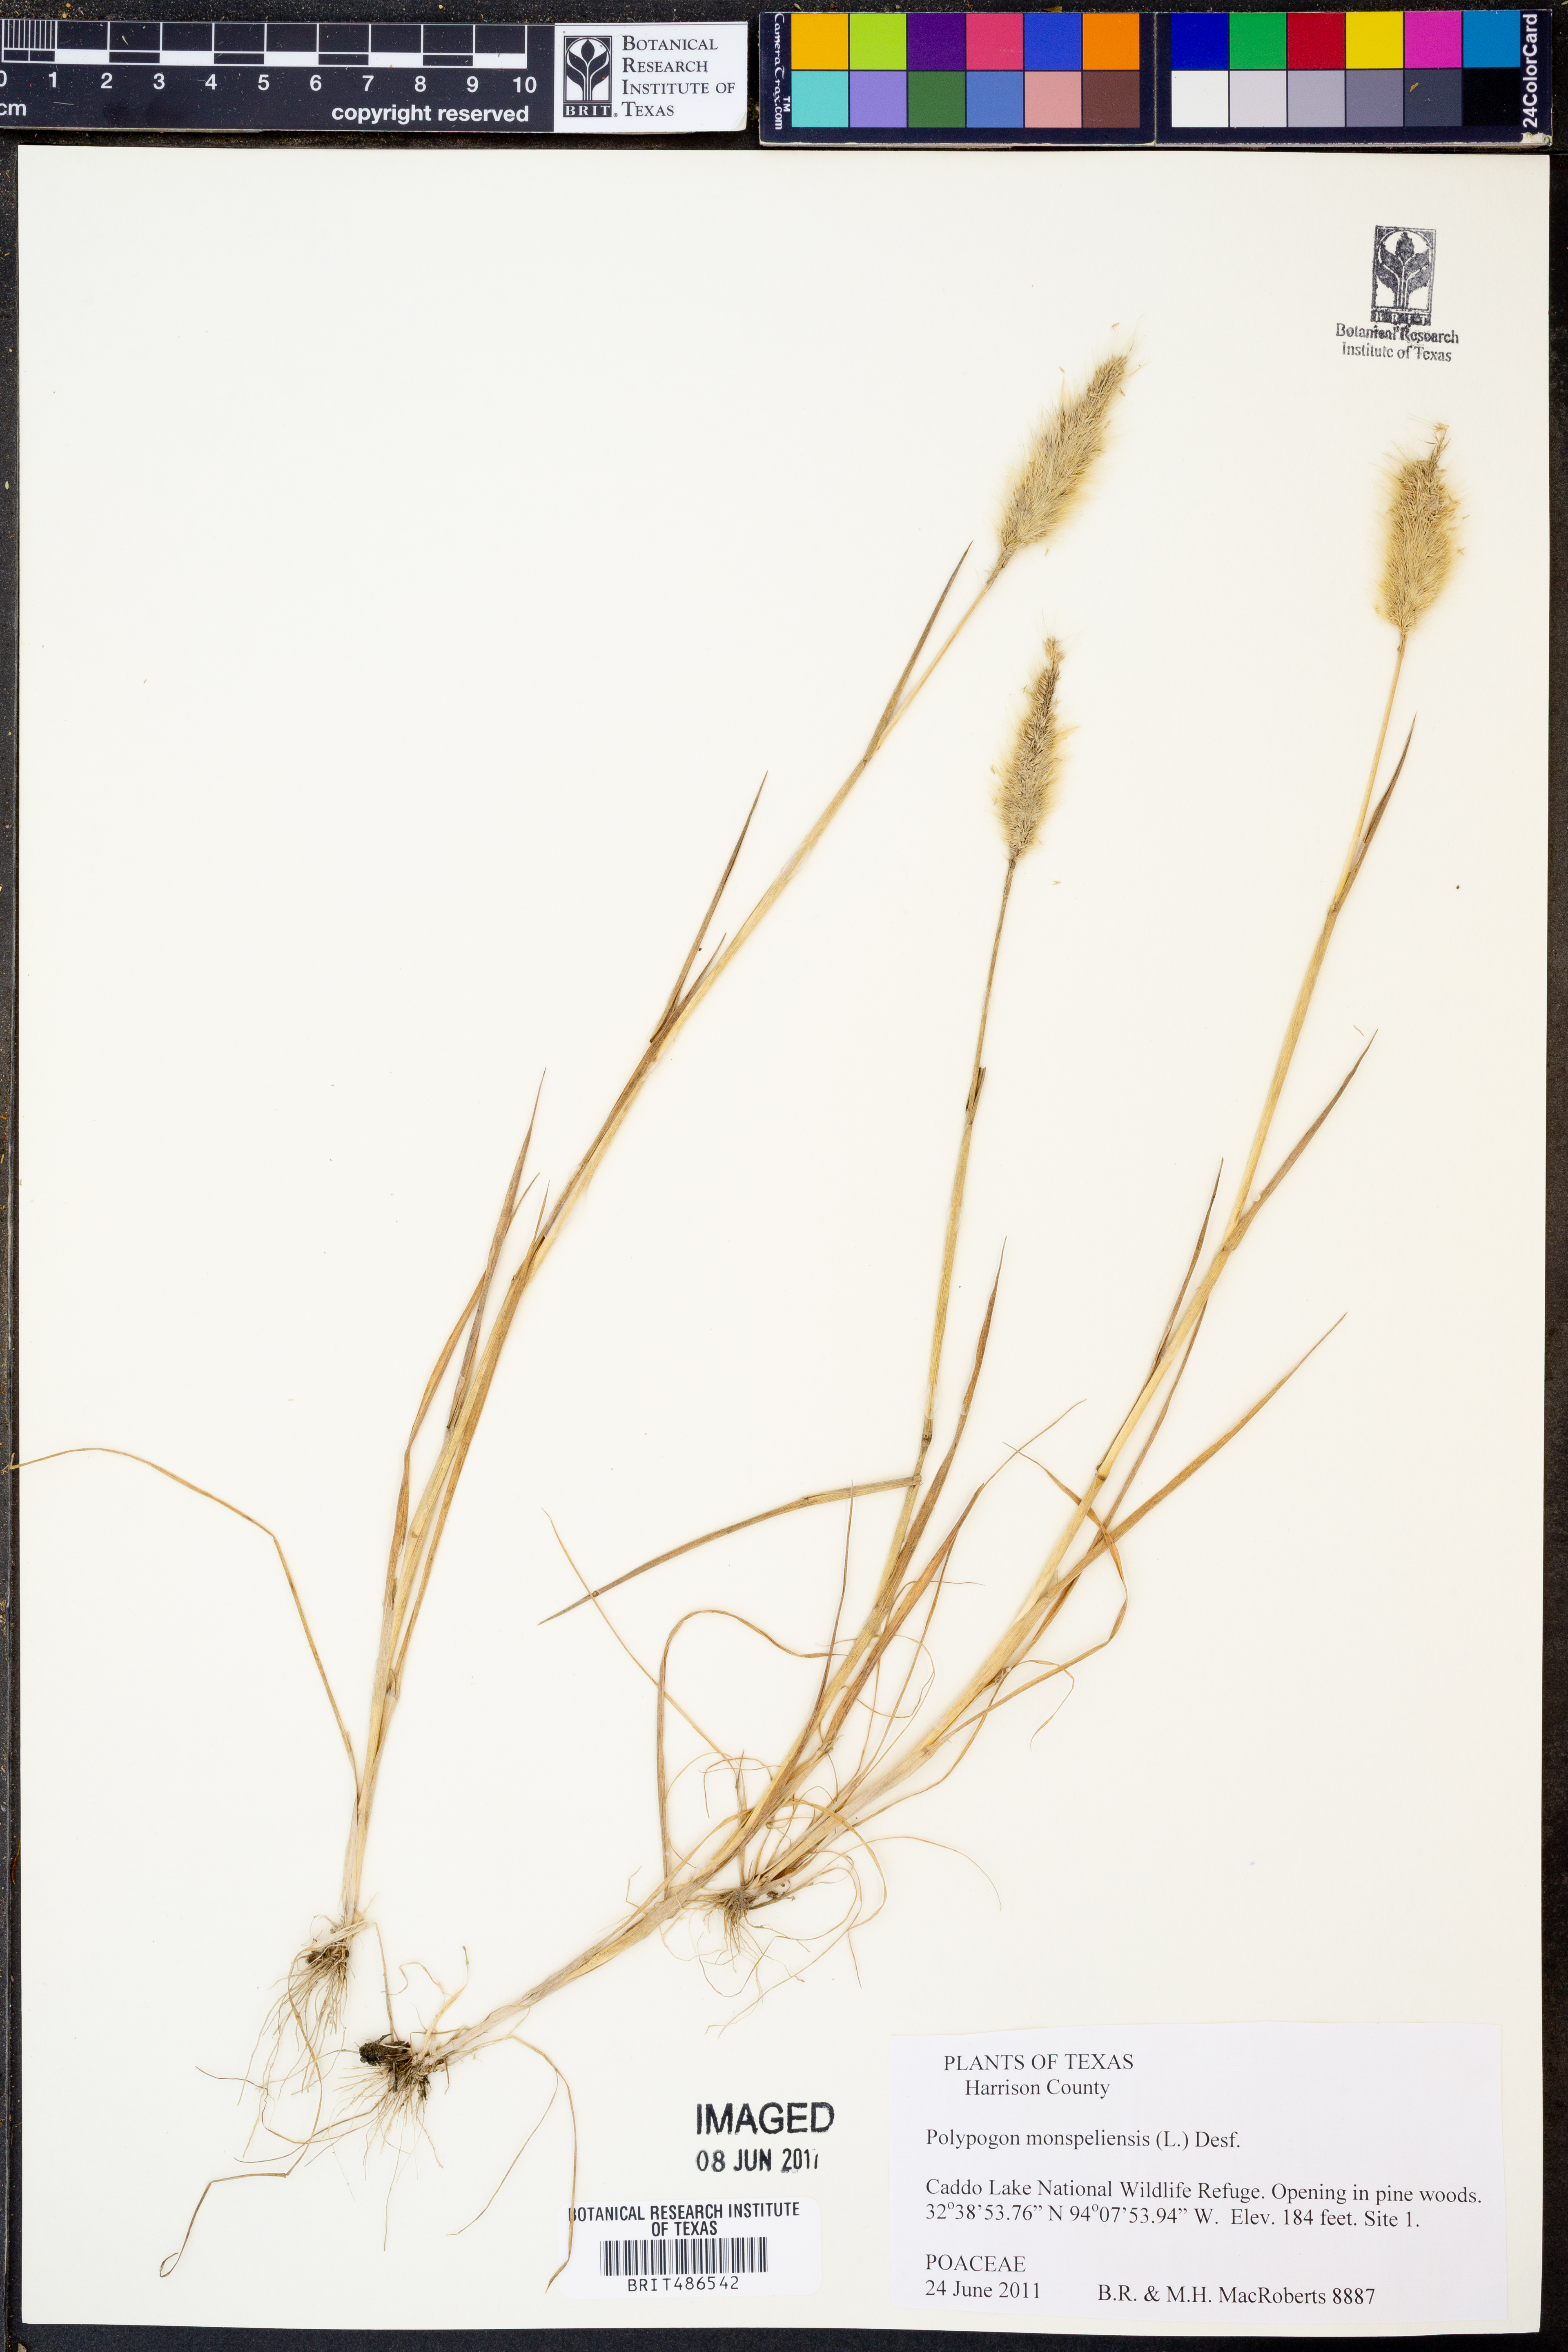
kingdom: Plantae
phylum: Tracheophyta
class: Liliopsida
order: Poales
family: Poaceae
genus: Polypogon
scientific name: Polypogon monspeliensis
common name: Annual rabbitsfoot grass
